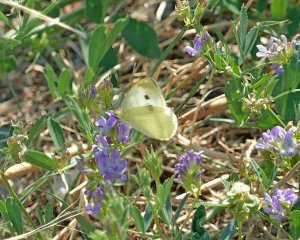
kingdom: Animalia
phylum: Arthropoda
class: Insecta
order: Lepidoptera
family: Pieridae
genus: Pieris
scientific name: Pieris rapae
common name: Cabbage White
